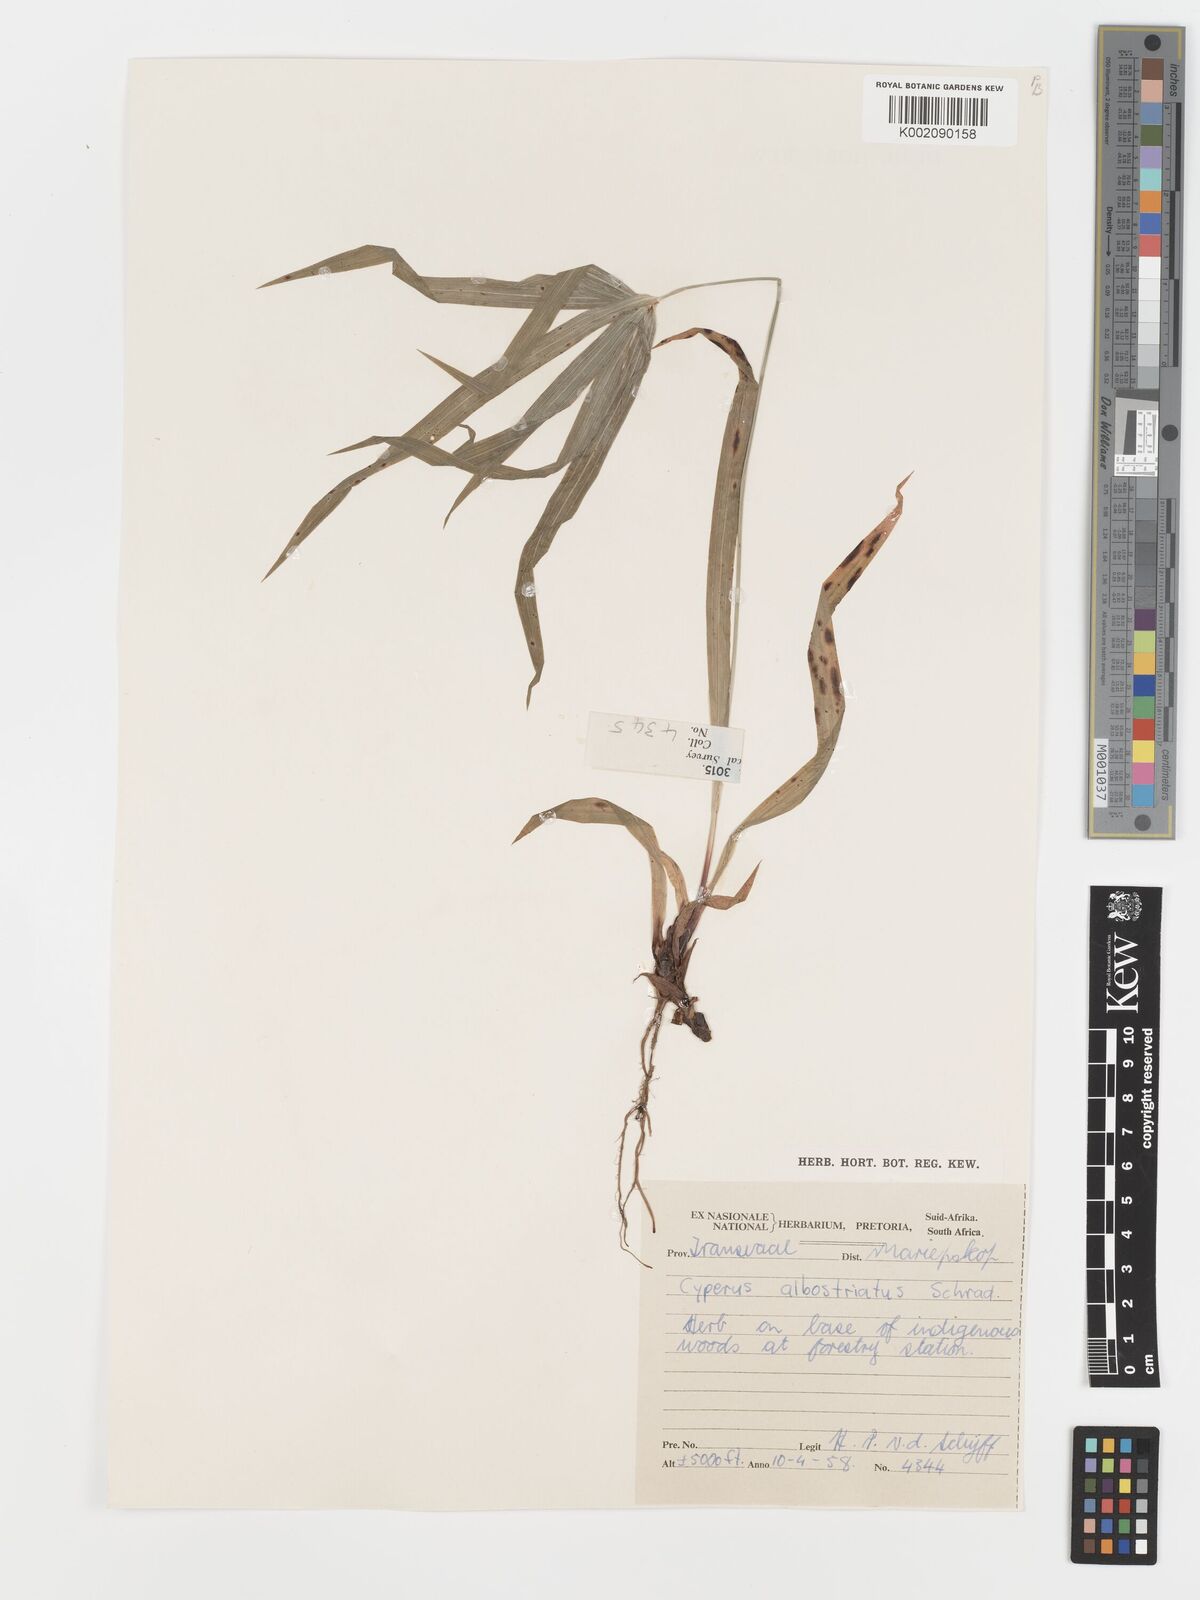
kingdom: Plantae
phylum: Tracheophyta
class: Liliopsida
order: Poales
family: Cyperaceae
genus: Cyperus
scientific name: Cyperus albostriatus
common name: Dwarf umbrella-grass
